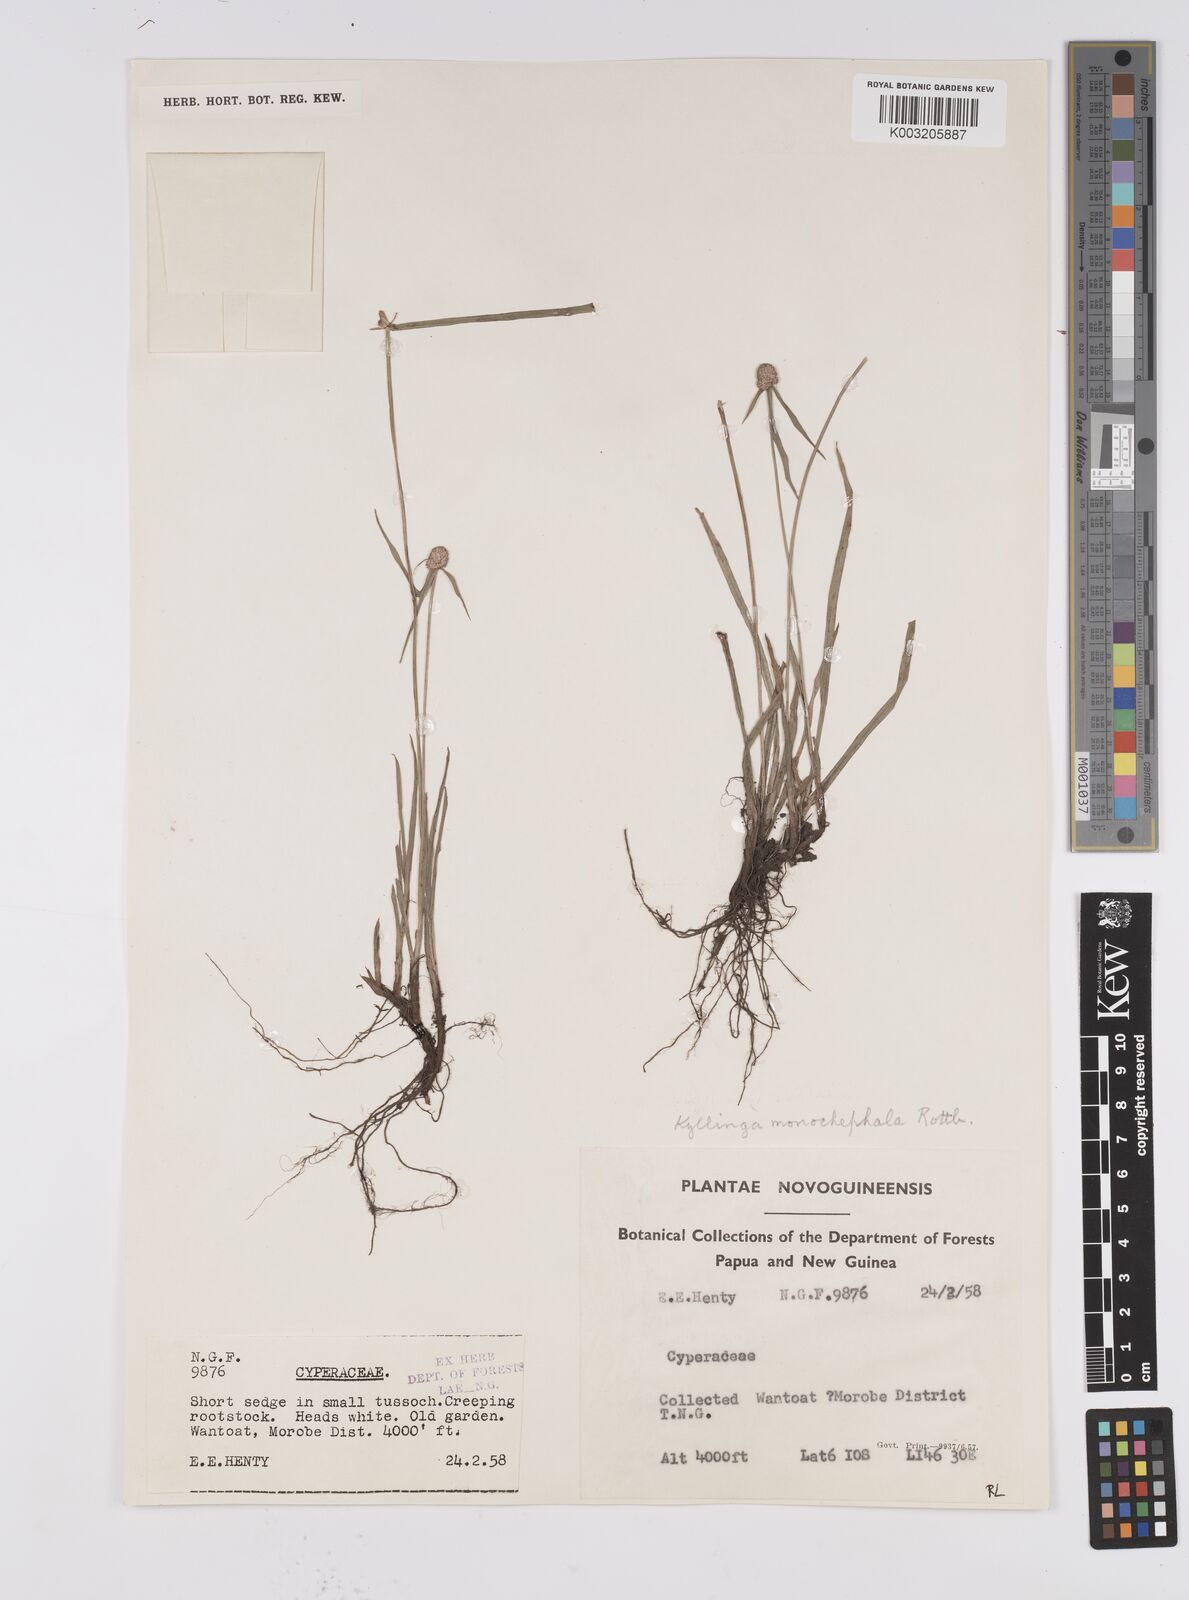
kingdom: Plantae
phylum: Tracheophyta
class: Liliopsida
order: Poales
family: Cyperaceae
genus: Cyperus
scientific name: Cyperus nemoralis
